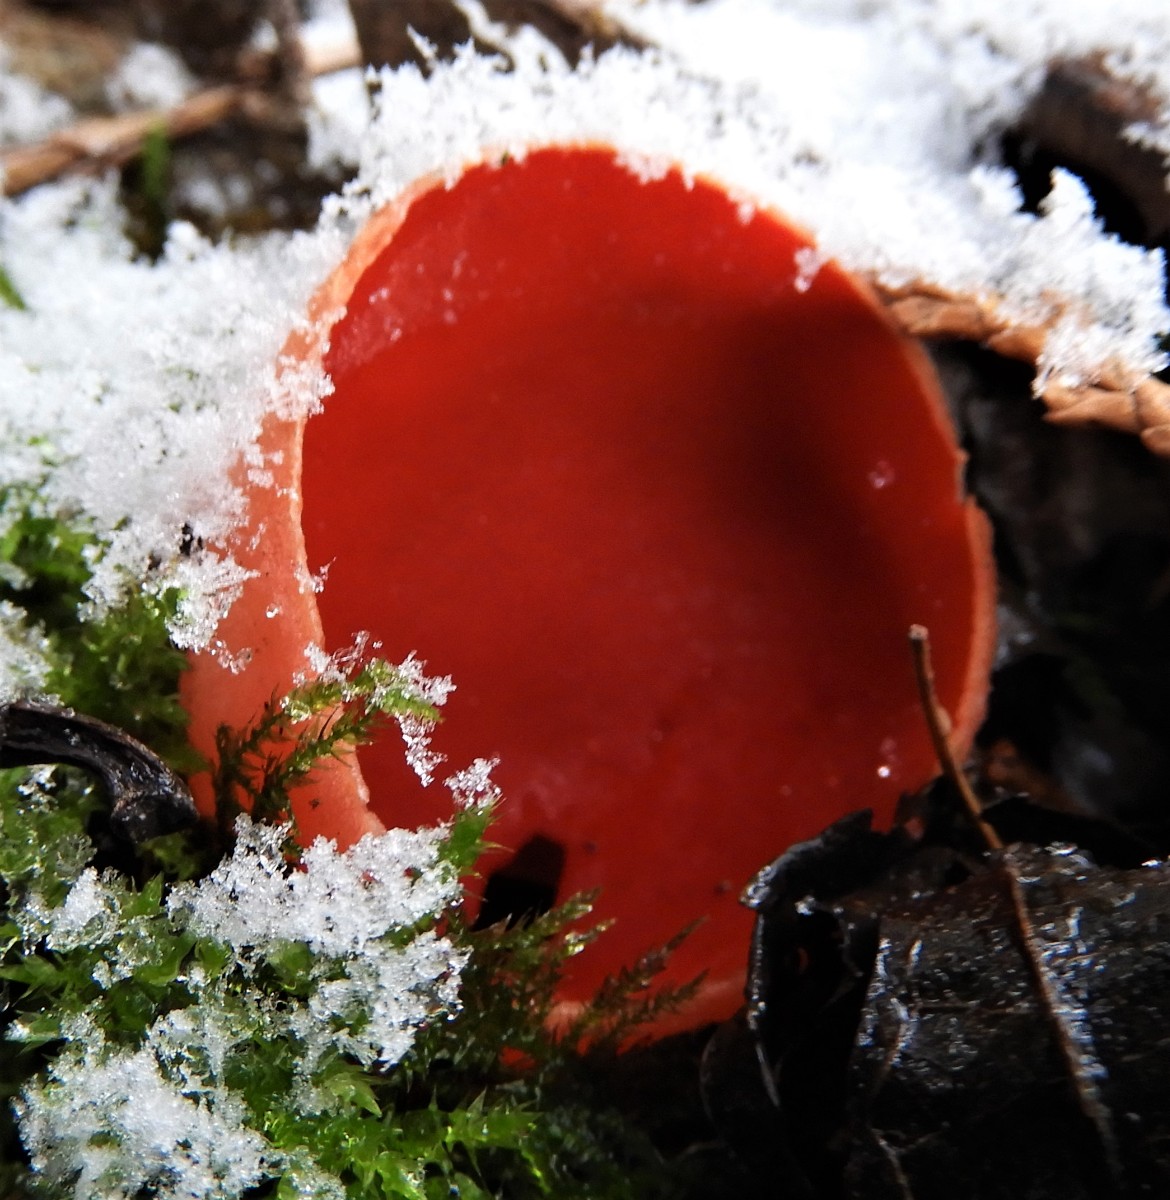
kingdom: Fungi
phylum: Ascomycota
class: Pezizomycetes
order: Pezizales
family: Sarcoscyphaceae
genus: Sarcoscypha
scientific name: Sarcoscypha austriaca
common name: krølhåret pragtbæger
